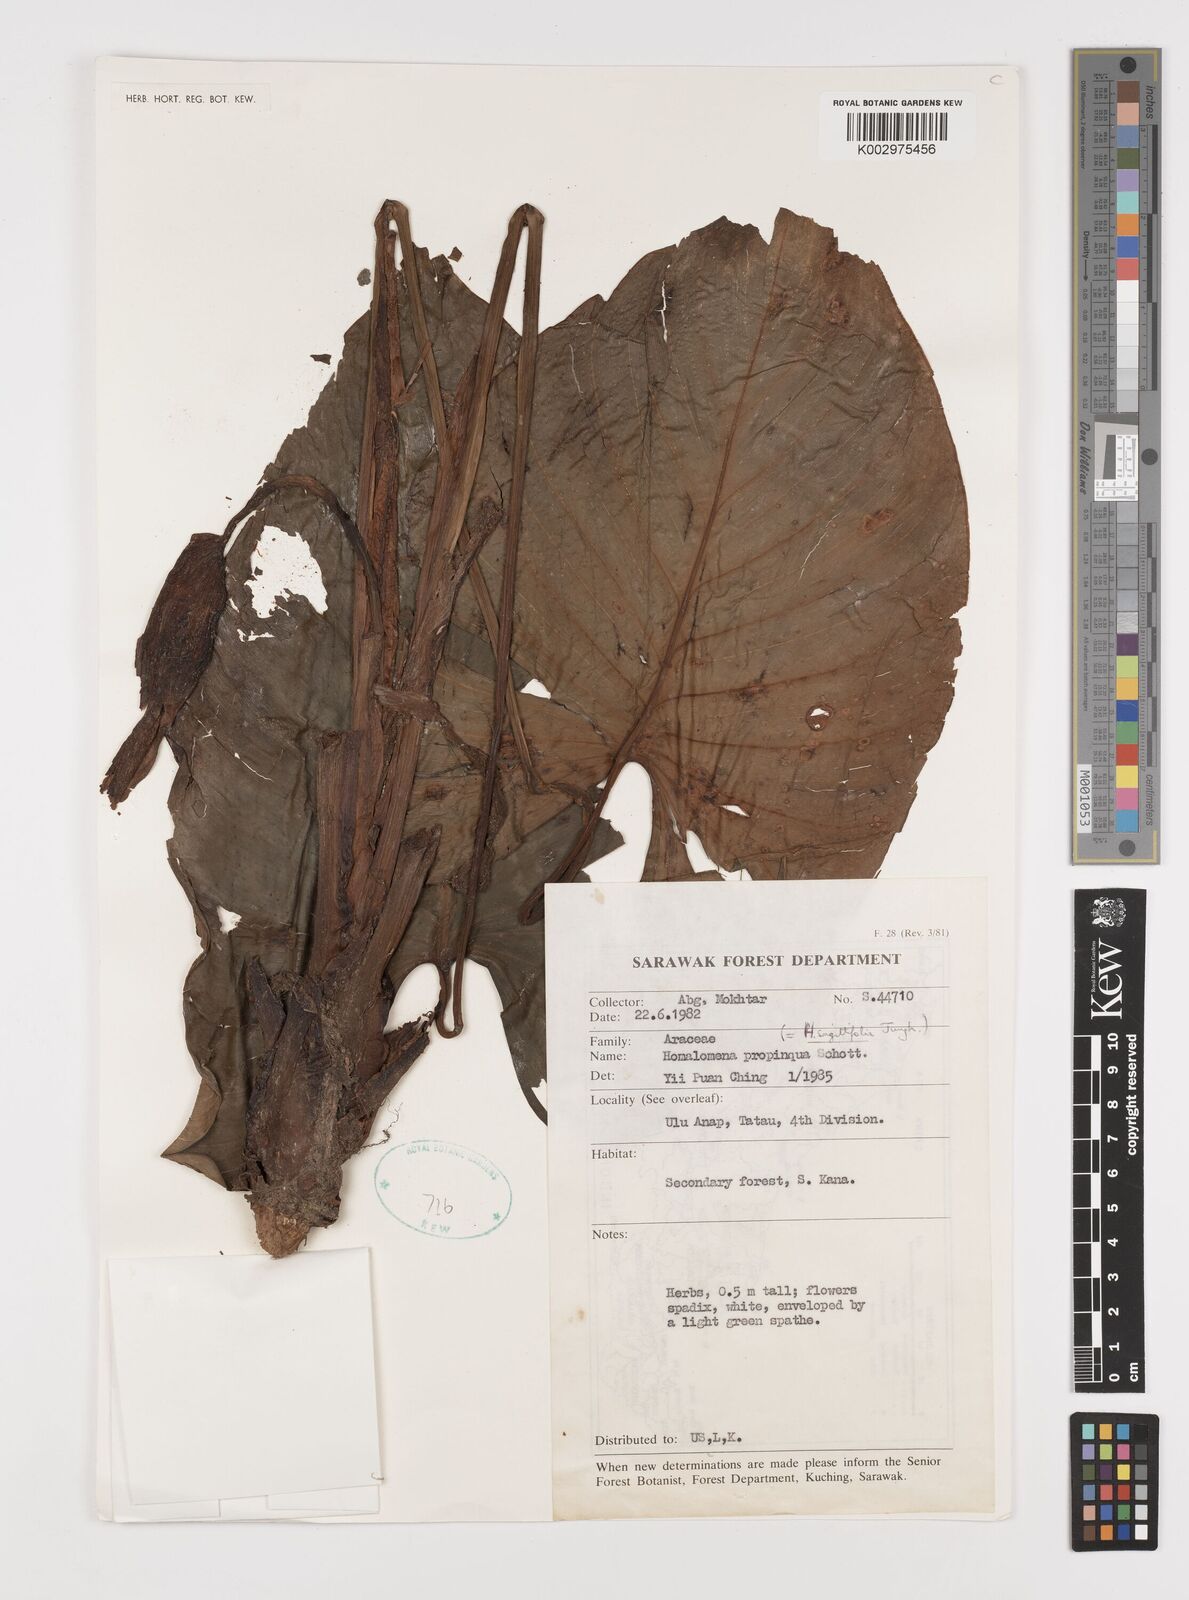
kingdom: Plantae
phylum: Tracheophyta
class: Liliopsida
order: Alismatales
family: Araceae
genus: Homalomena
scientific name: Homalomena humilis
